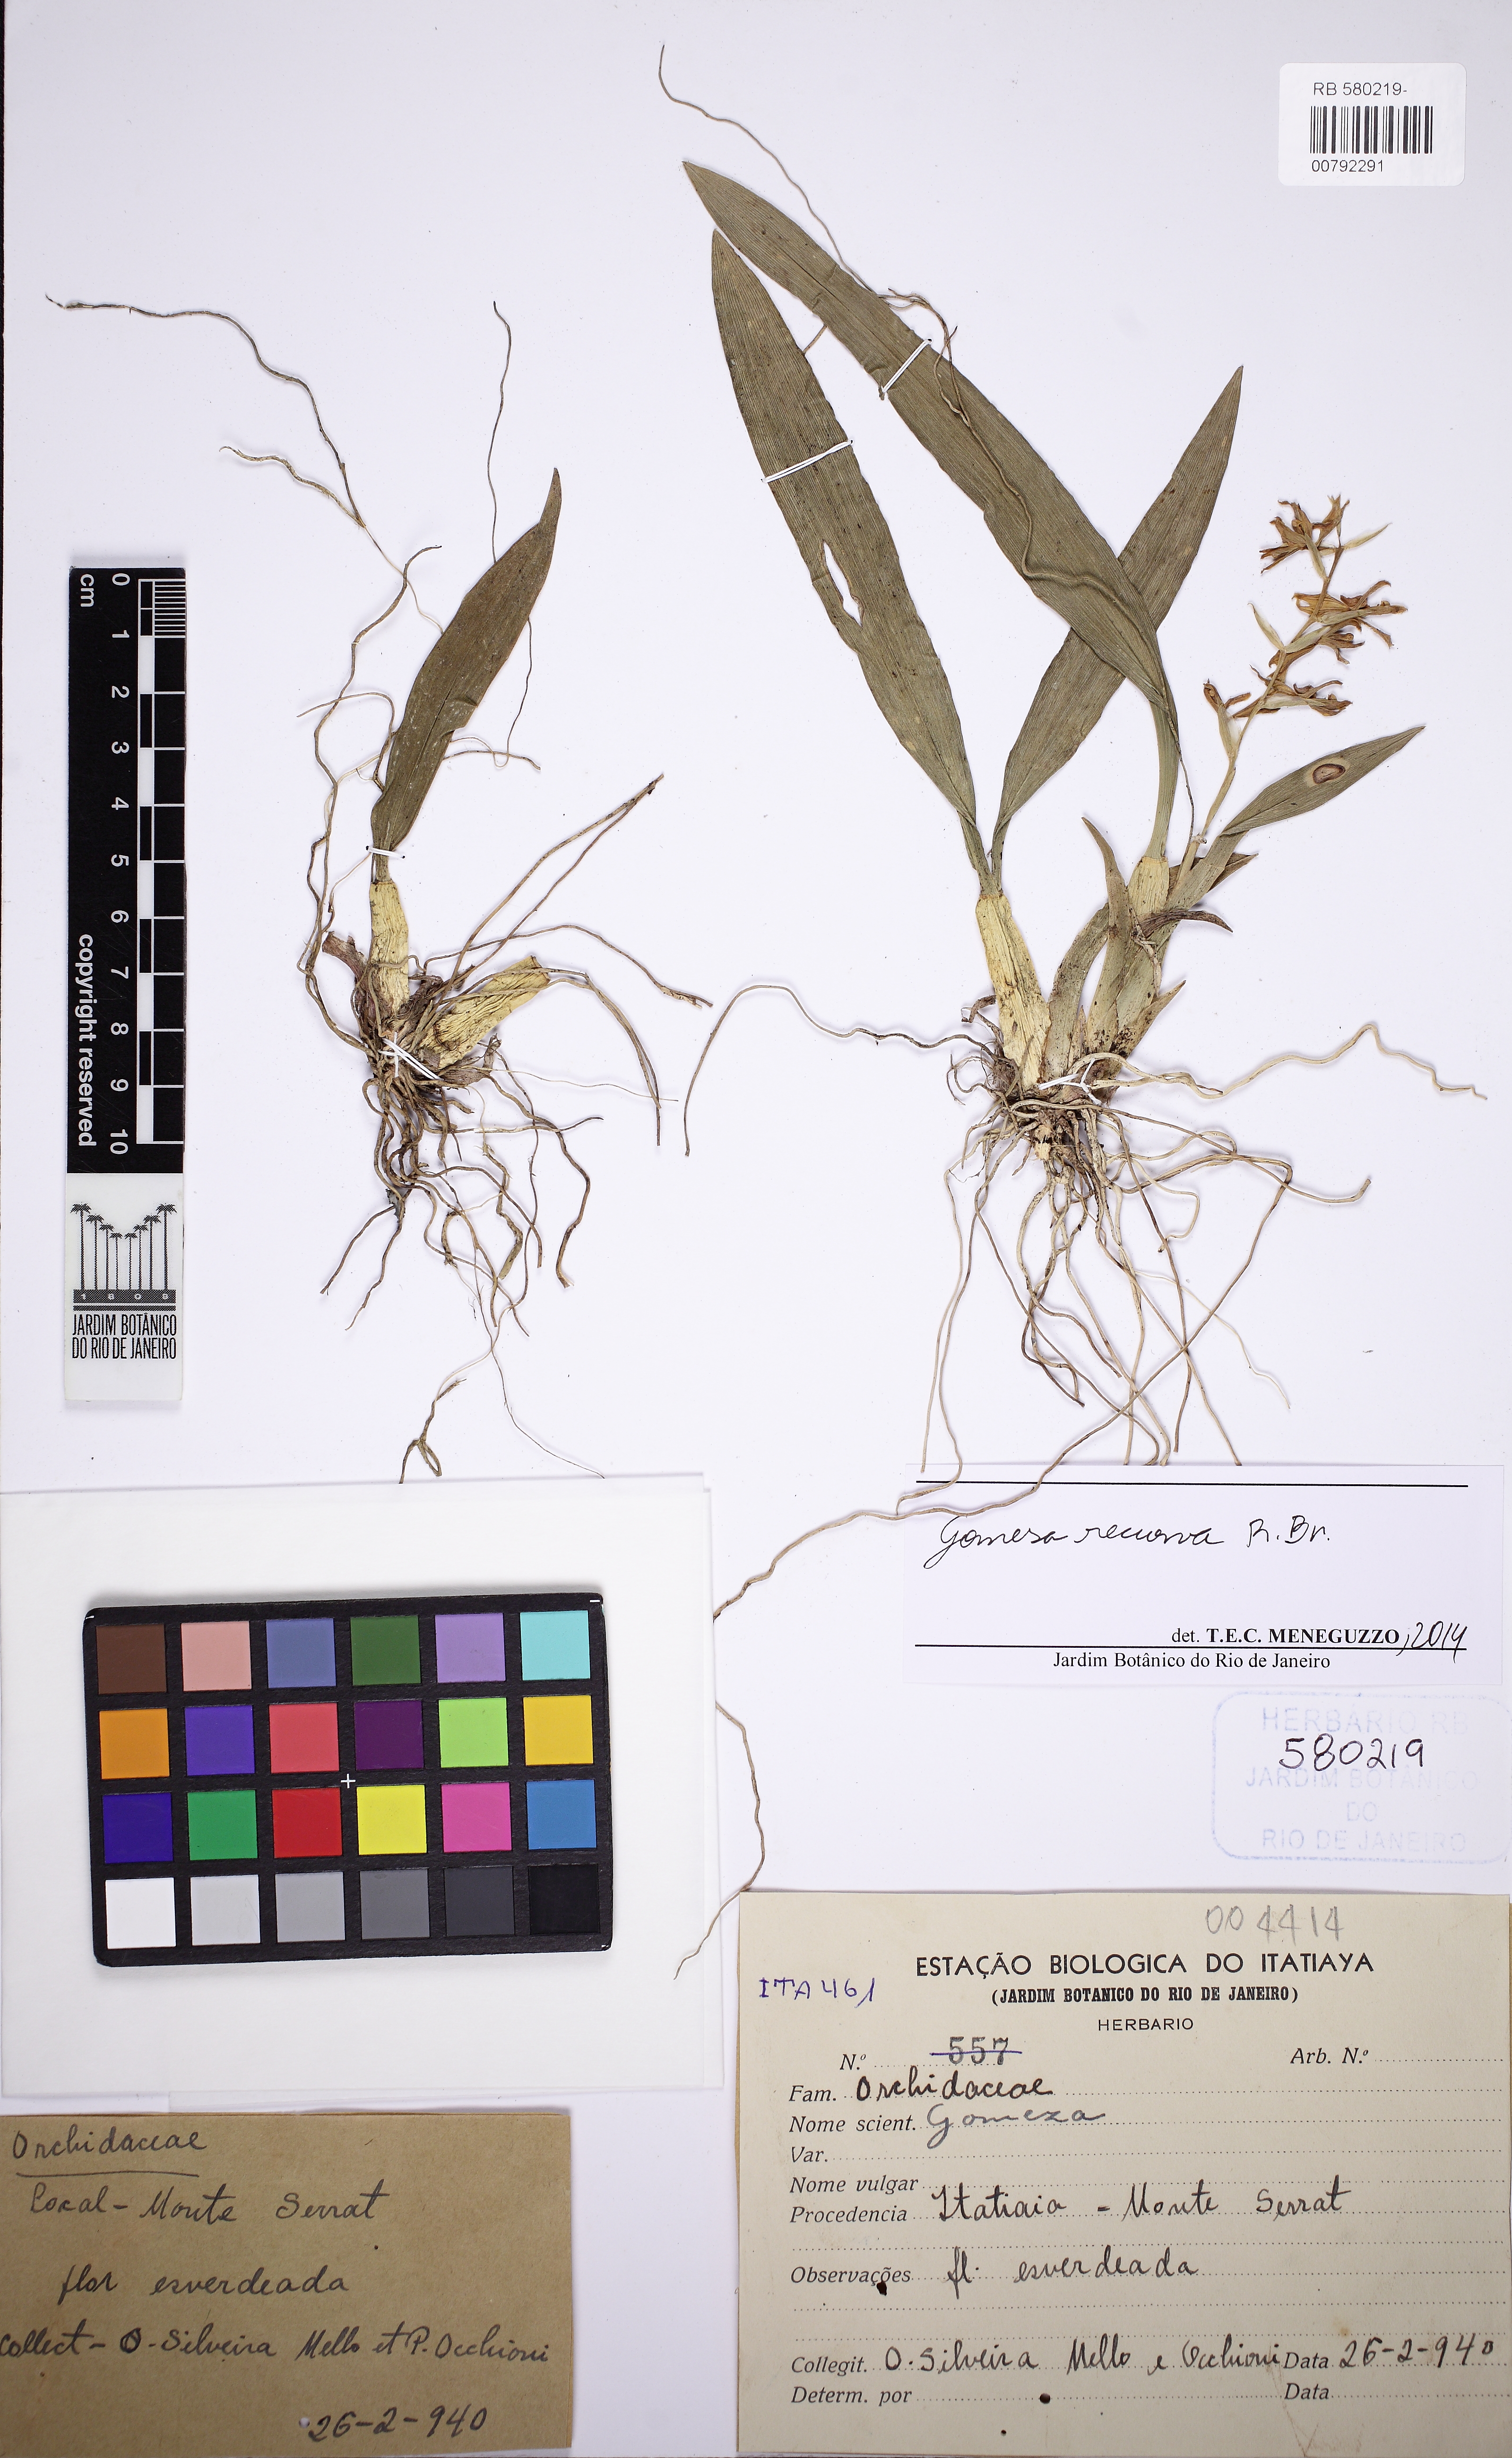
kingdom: Plantae
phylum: Tracheophyta
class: Liliopsida
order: Asparagales
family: Orchidaceae
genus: Gomesa
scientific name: Gomesa laxiflora
